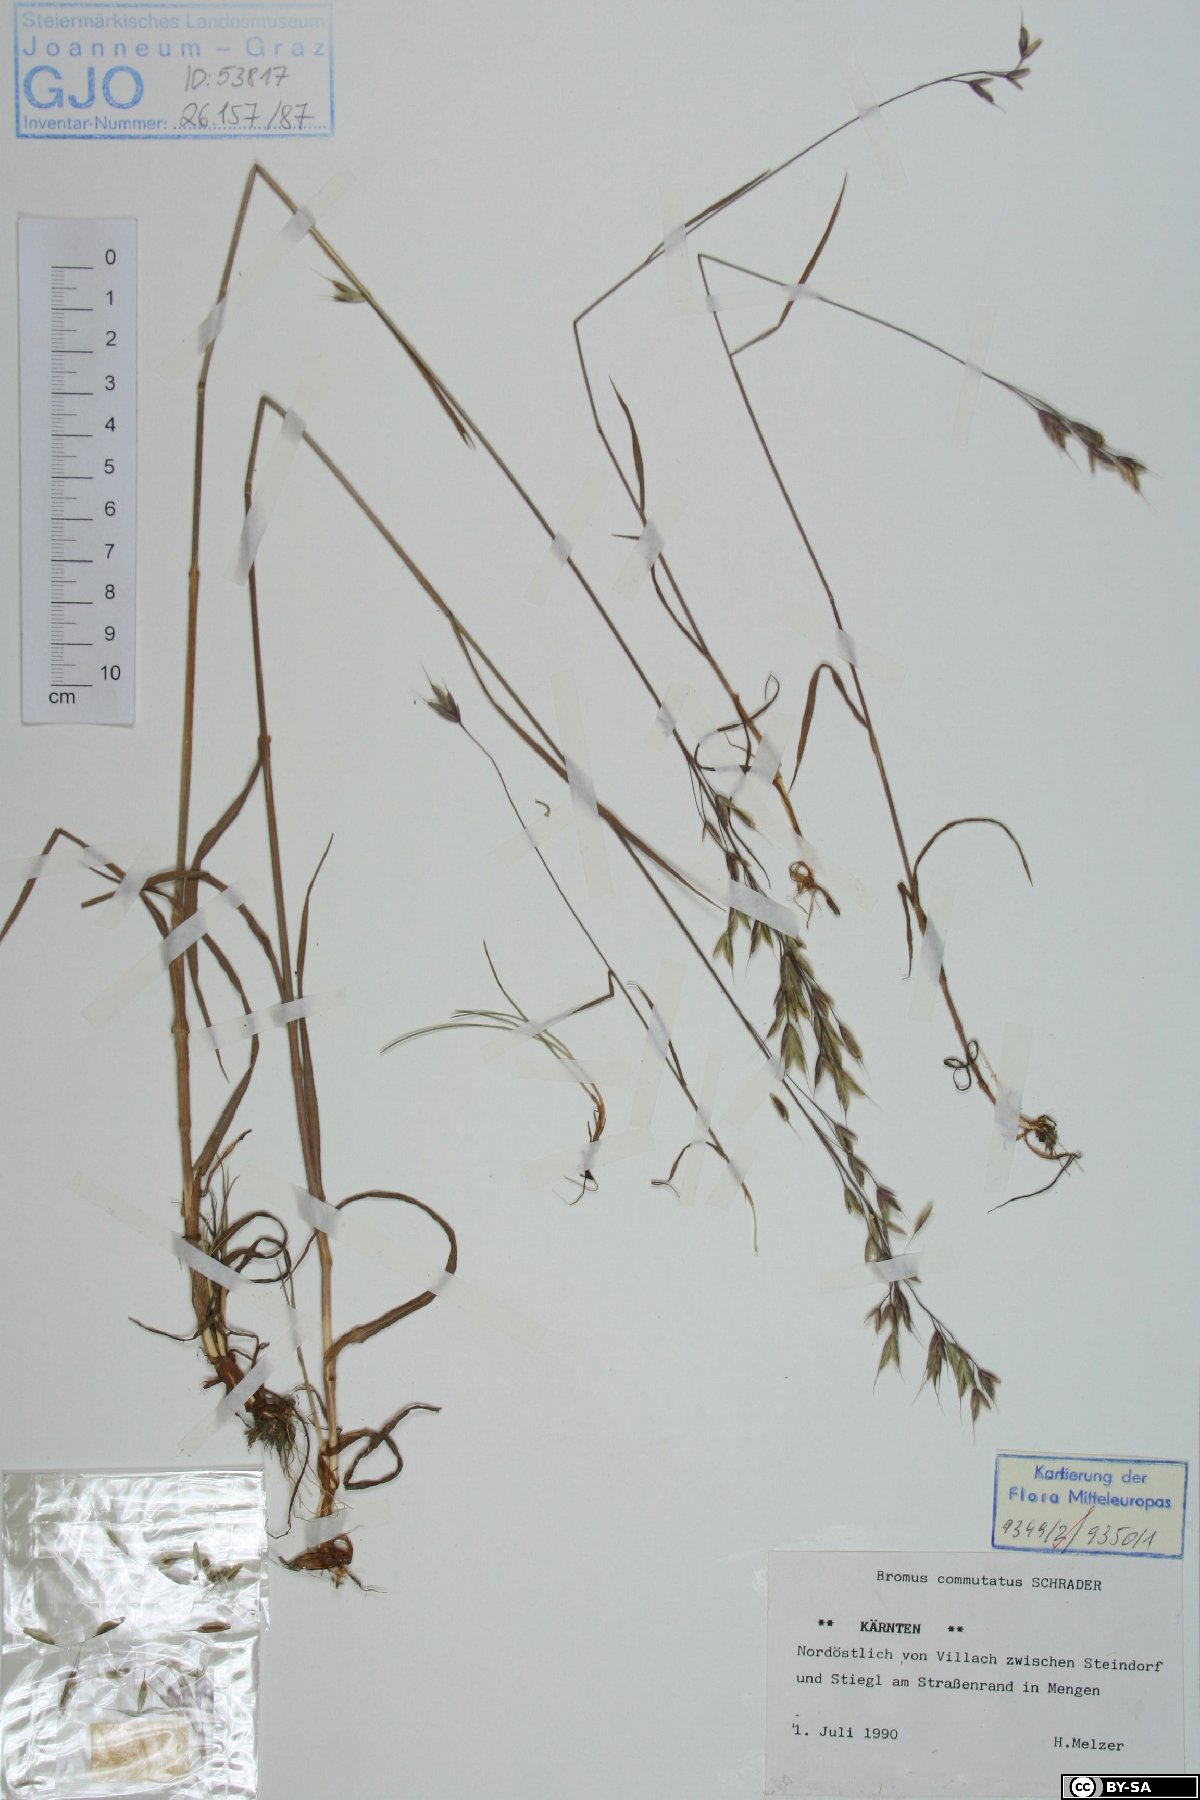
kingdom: Plantae
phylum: Tracheophyta
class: Liliopsida
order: Poales
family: Poaceae
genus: Bromus
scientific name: Bromus commutatus
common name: Meadow brome
